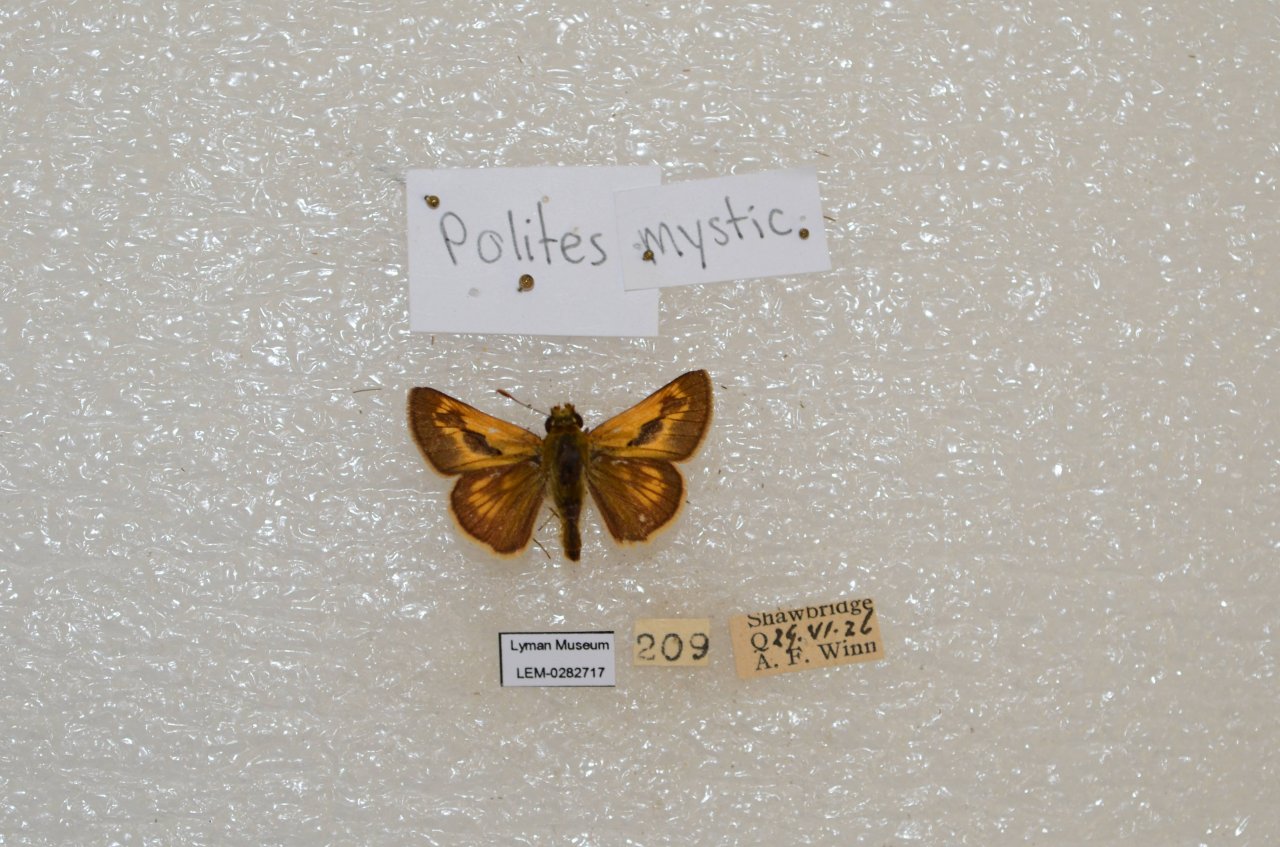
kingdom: Animalia
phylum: Arthropoda
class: Insecta
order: Lepidoptera
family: Hesperiidae
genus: Polites
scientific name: Polites
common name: Long Dash Skipper
